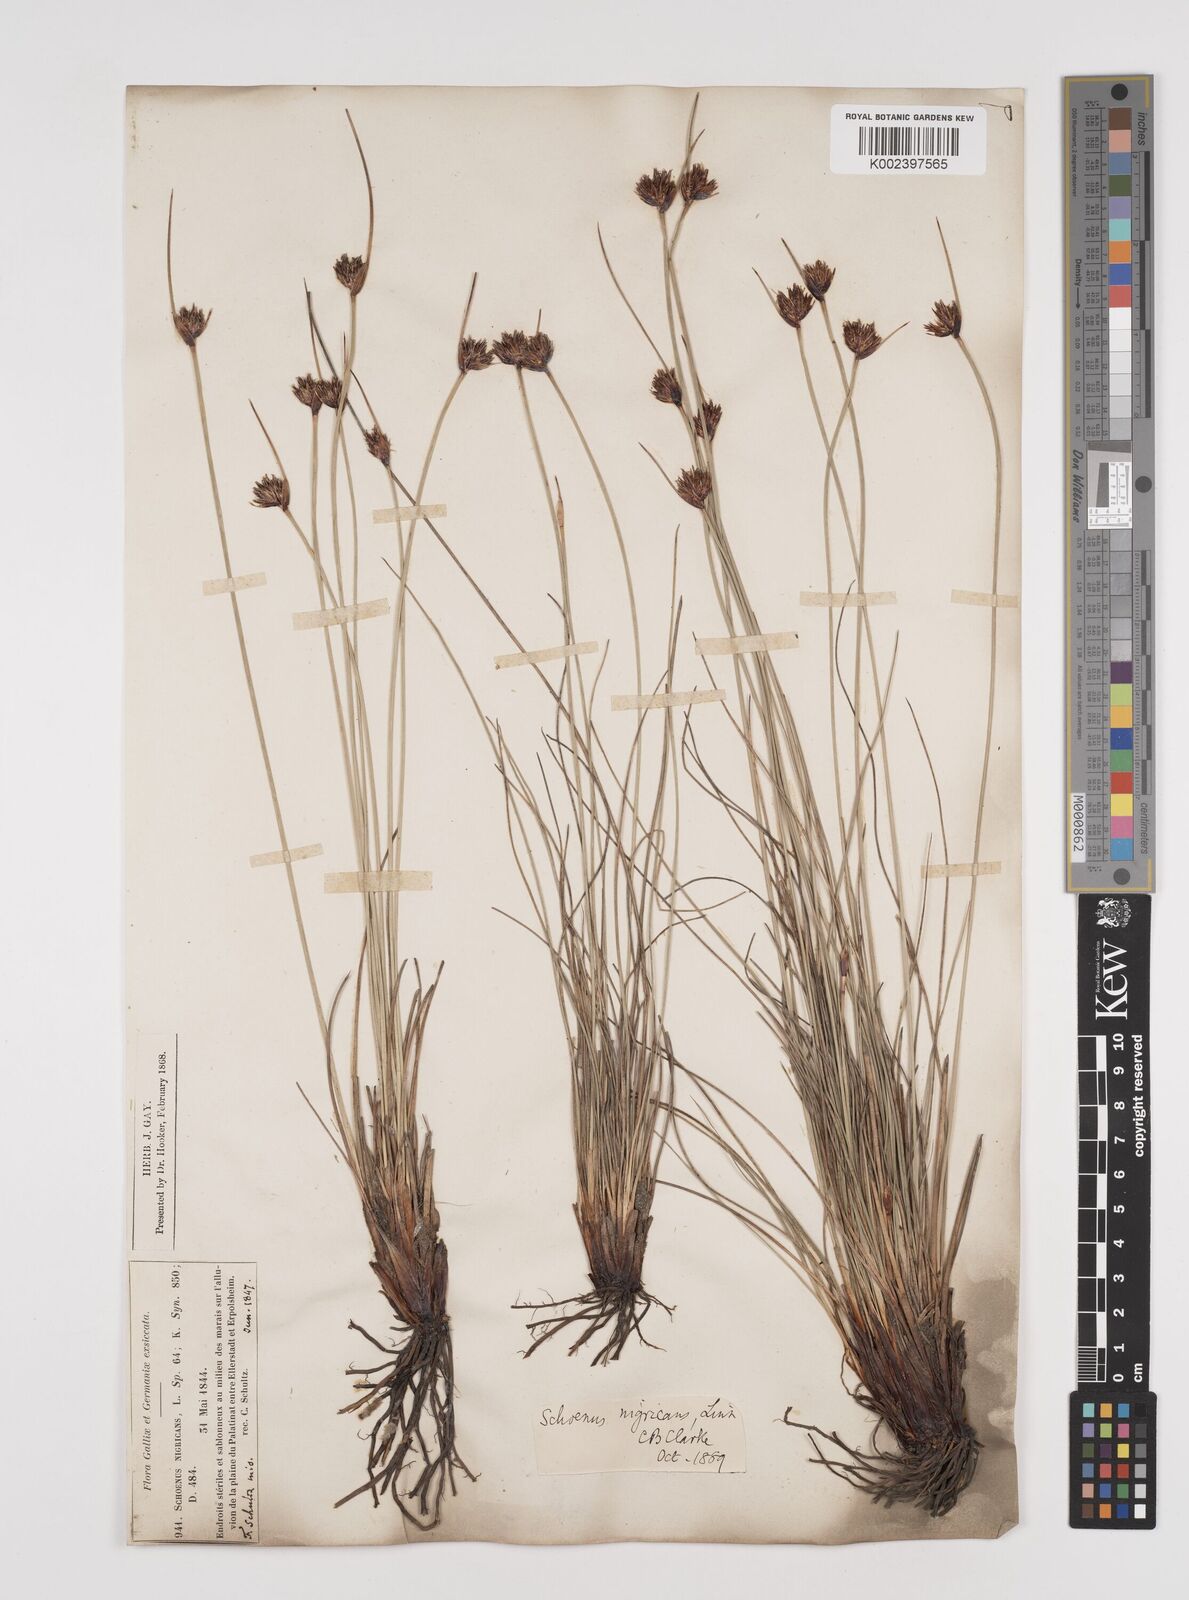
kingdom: Plantae
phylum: Tracheophyta
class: Liliopsida
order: Poales
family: Cyperaceae
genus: Schoenus
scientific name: Schoenus nigricans
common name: Black bog-rush
